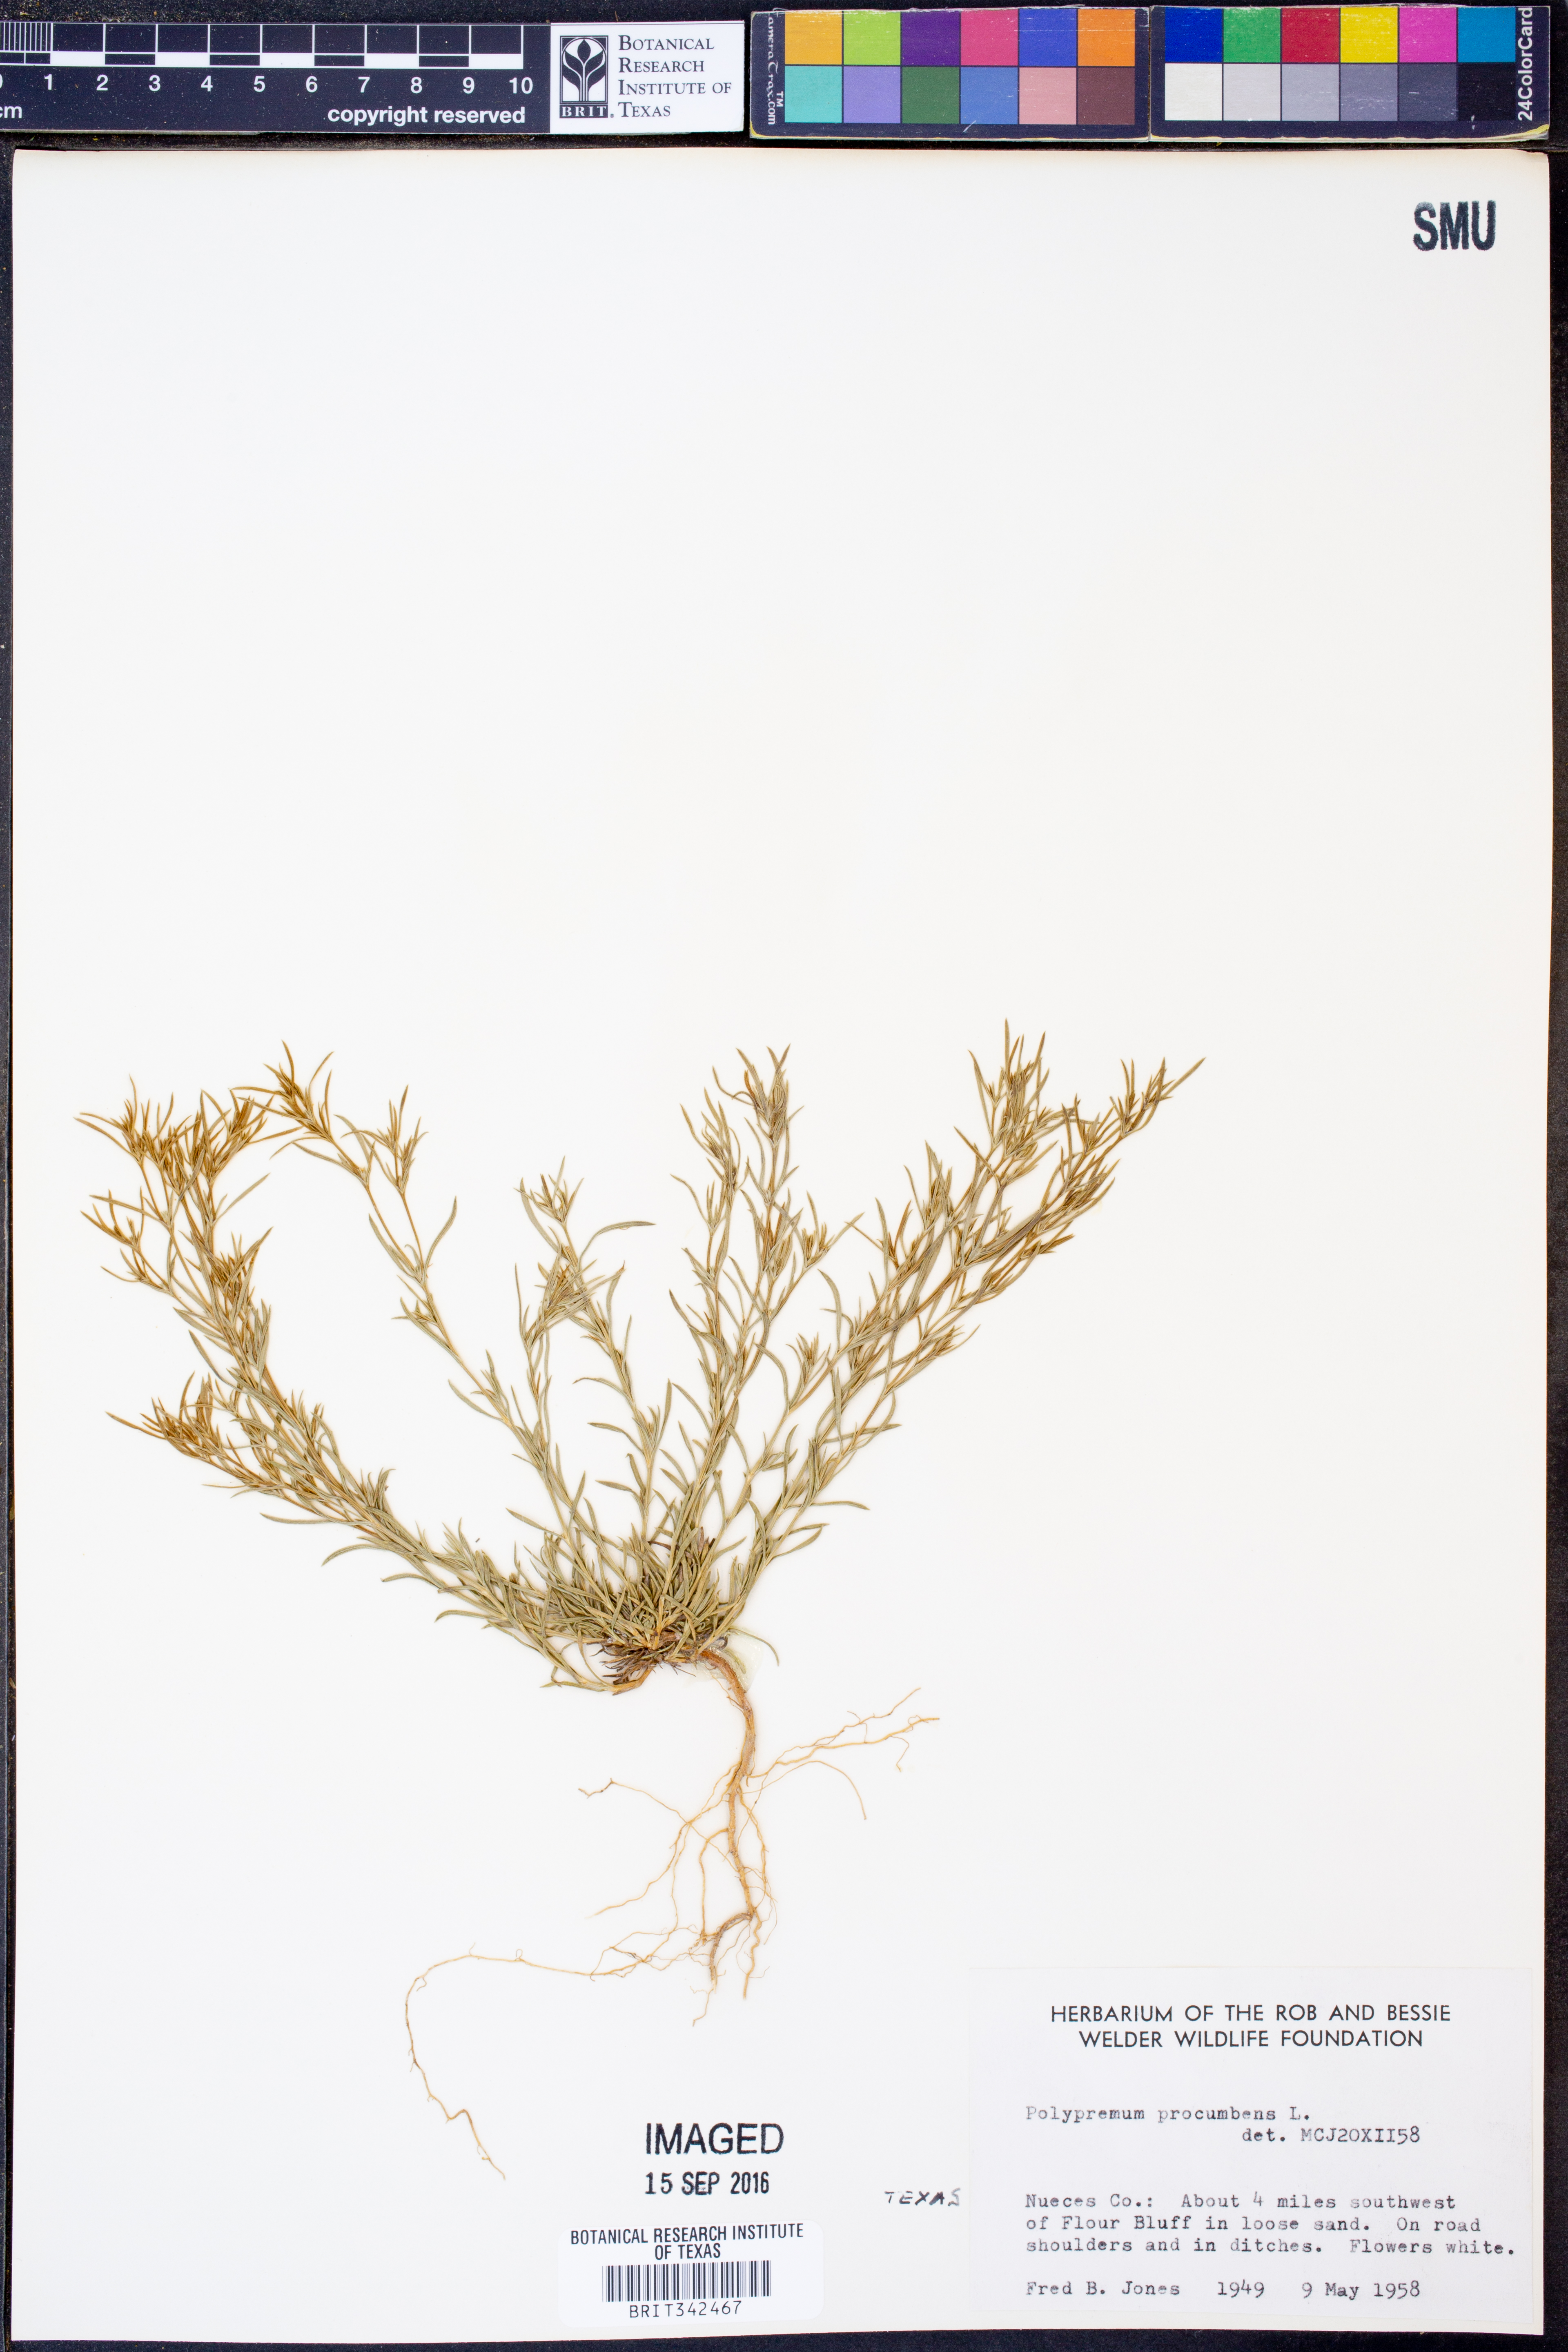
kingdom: Plantae
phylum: Tracheophyta
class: Magnoliopsida
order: Lamiales
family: Tetrachondraceae
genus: Polypremum
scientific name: Polypremum procumbens
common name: Juniper-leaf
